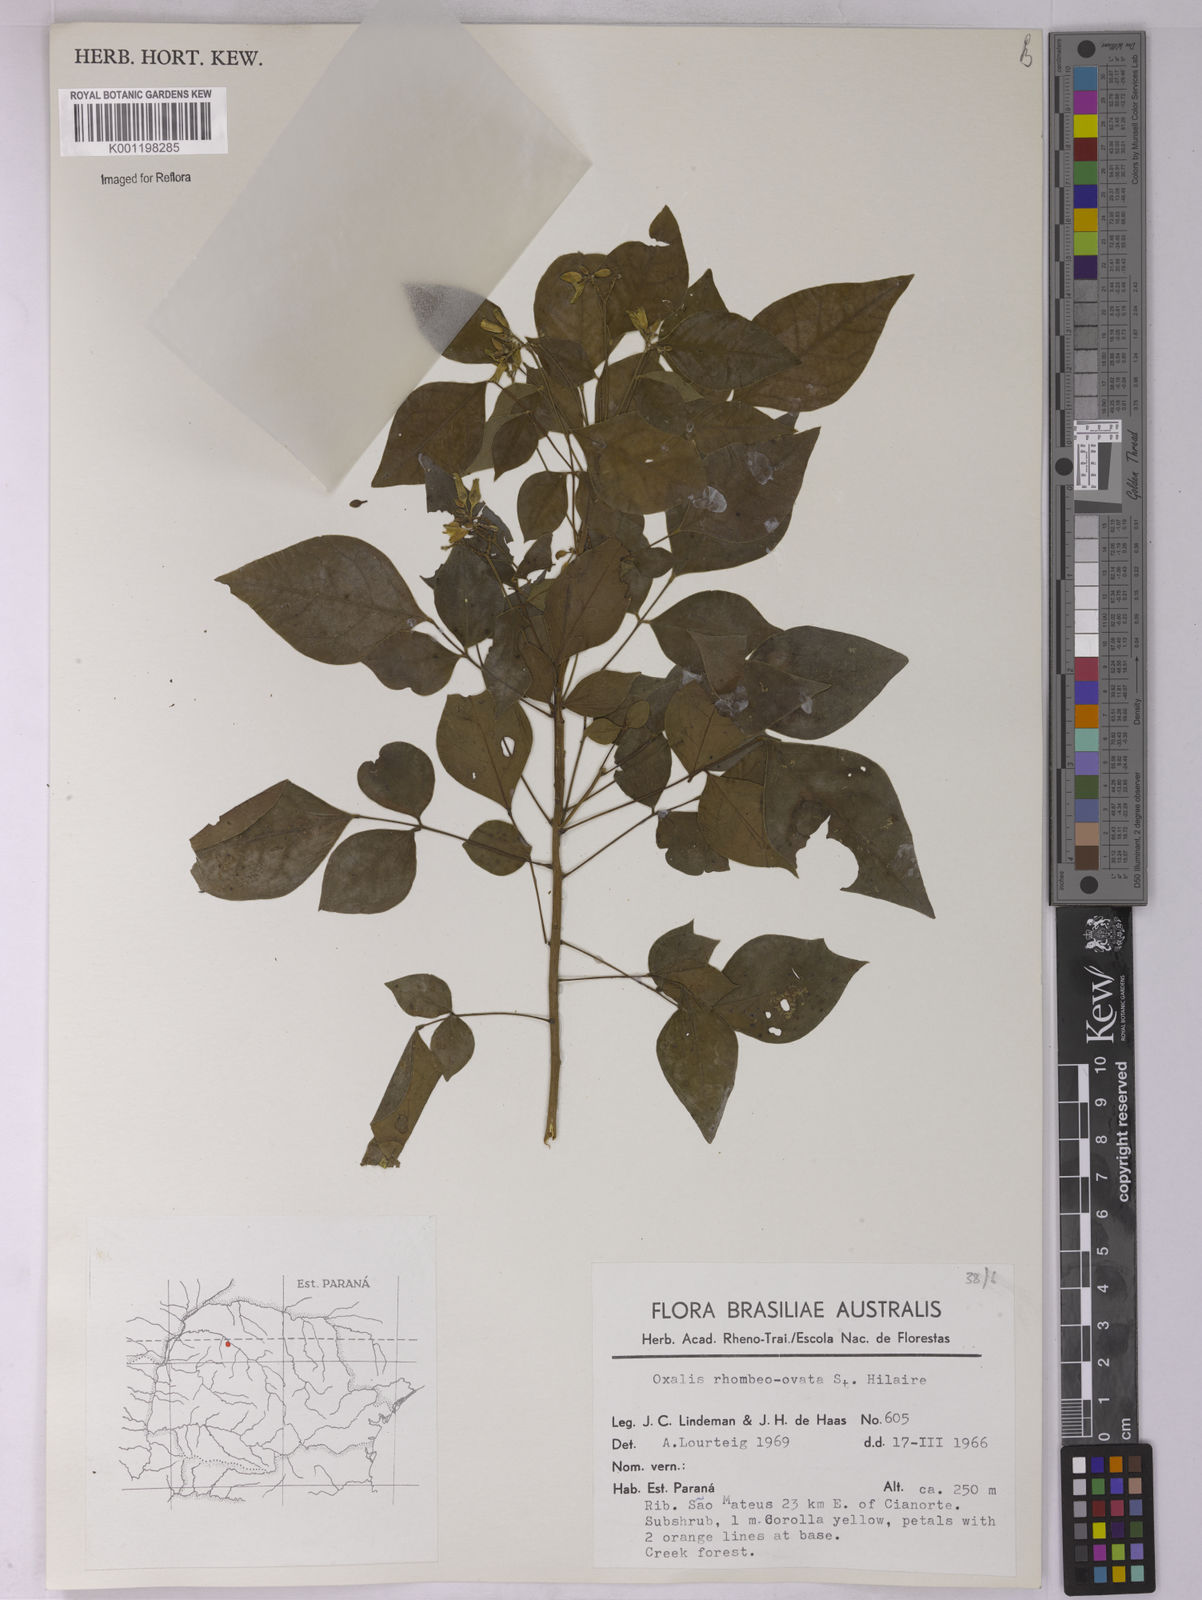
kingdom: Plantae
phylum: Tracheophyta
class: Magnoliopsida
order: Oxalidales
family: Oxalidaceae
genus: Oxalis
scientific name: Oxalis rhombeo-ovata
